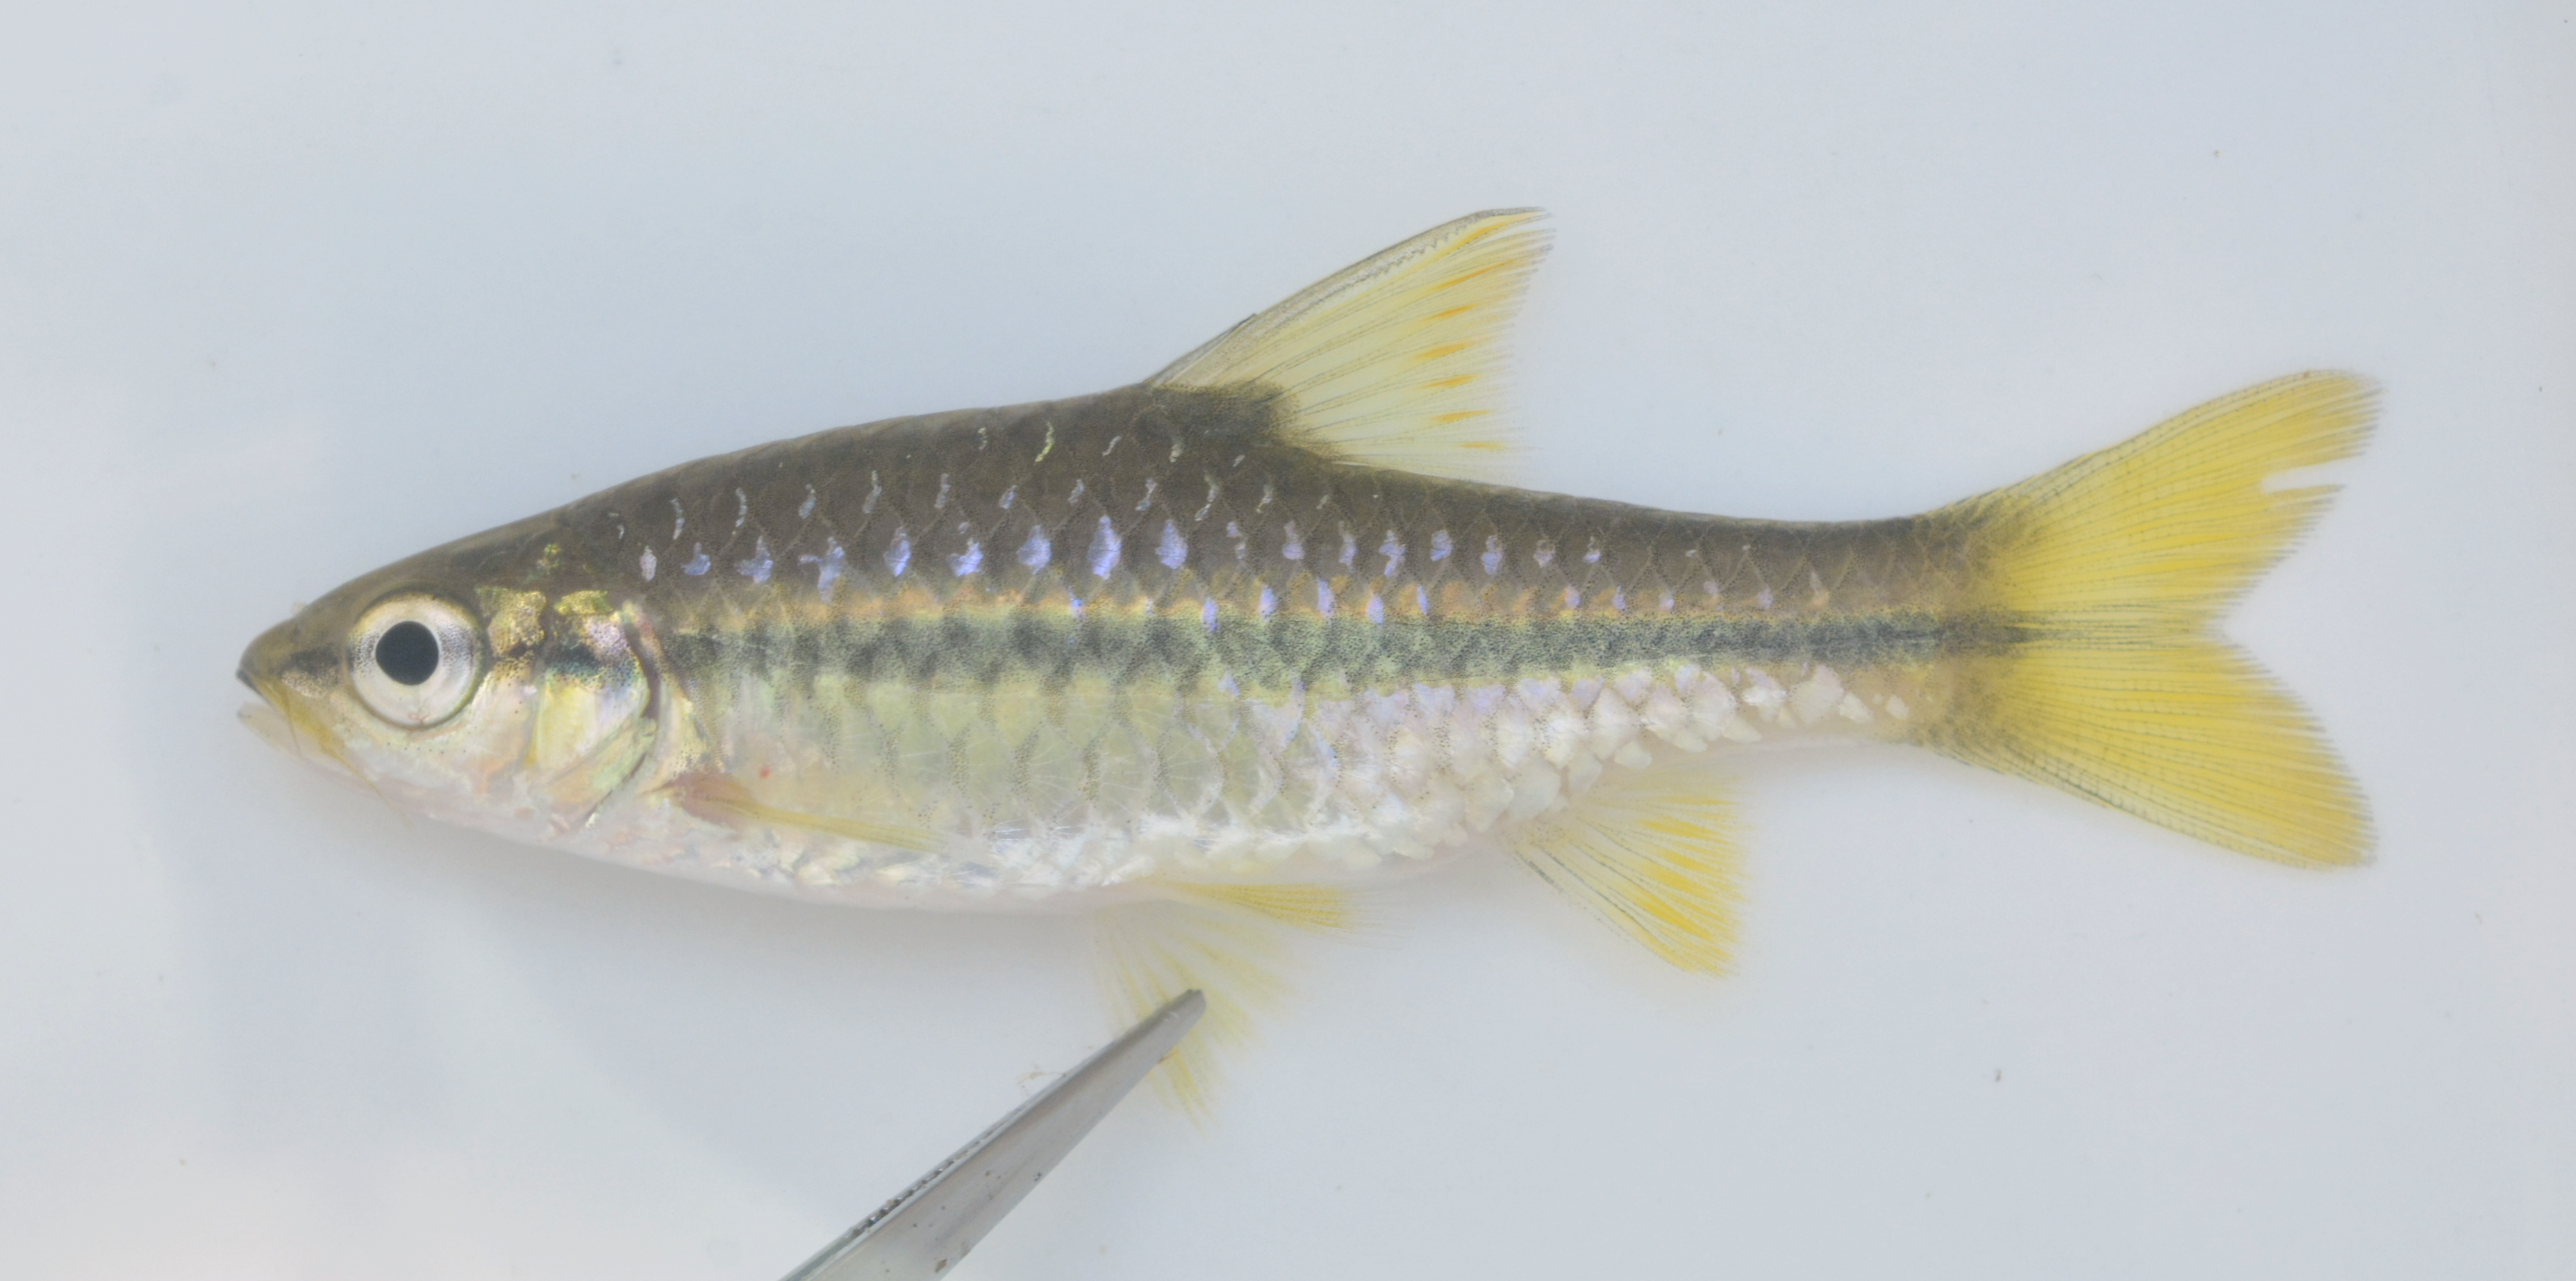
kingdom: Animalia
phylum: Chordata
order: Cypriniformes
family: Cyprinidae
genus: Enteromius
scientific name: Enteromius eutaenia
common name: Orangefin barb
